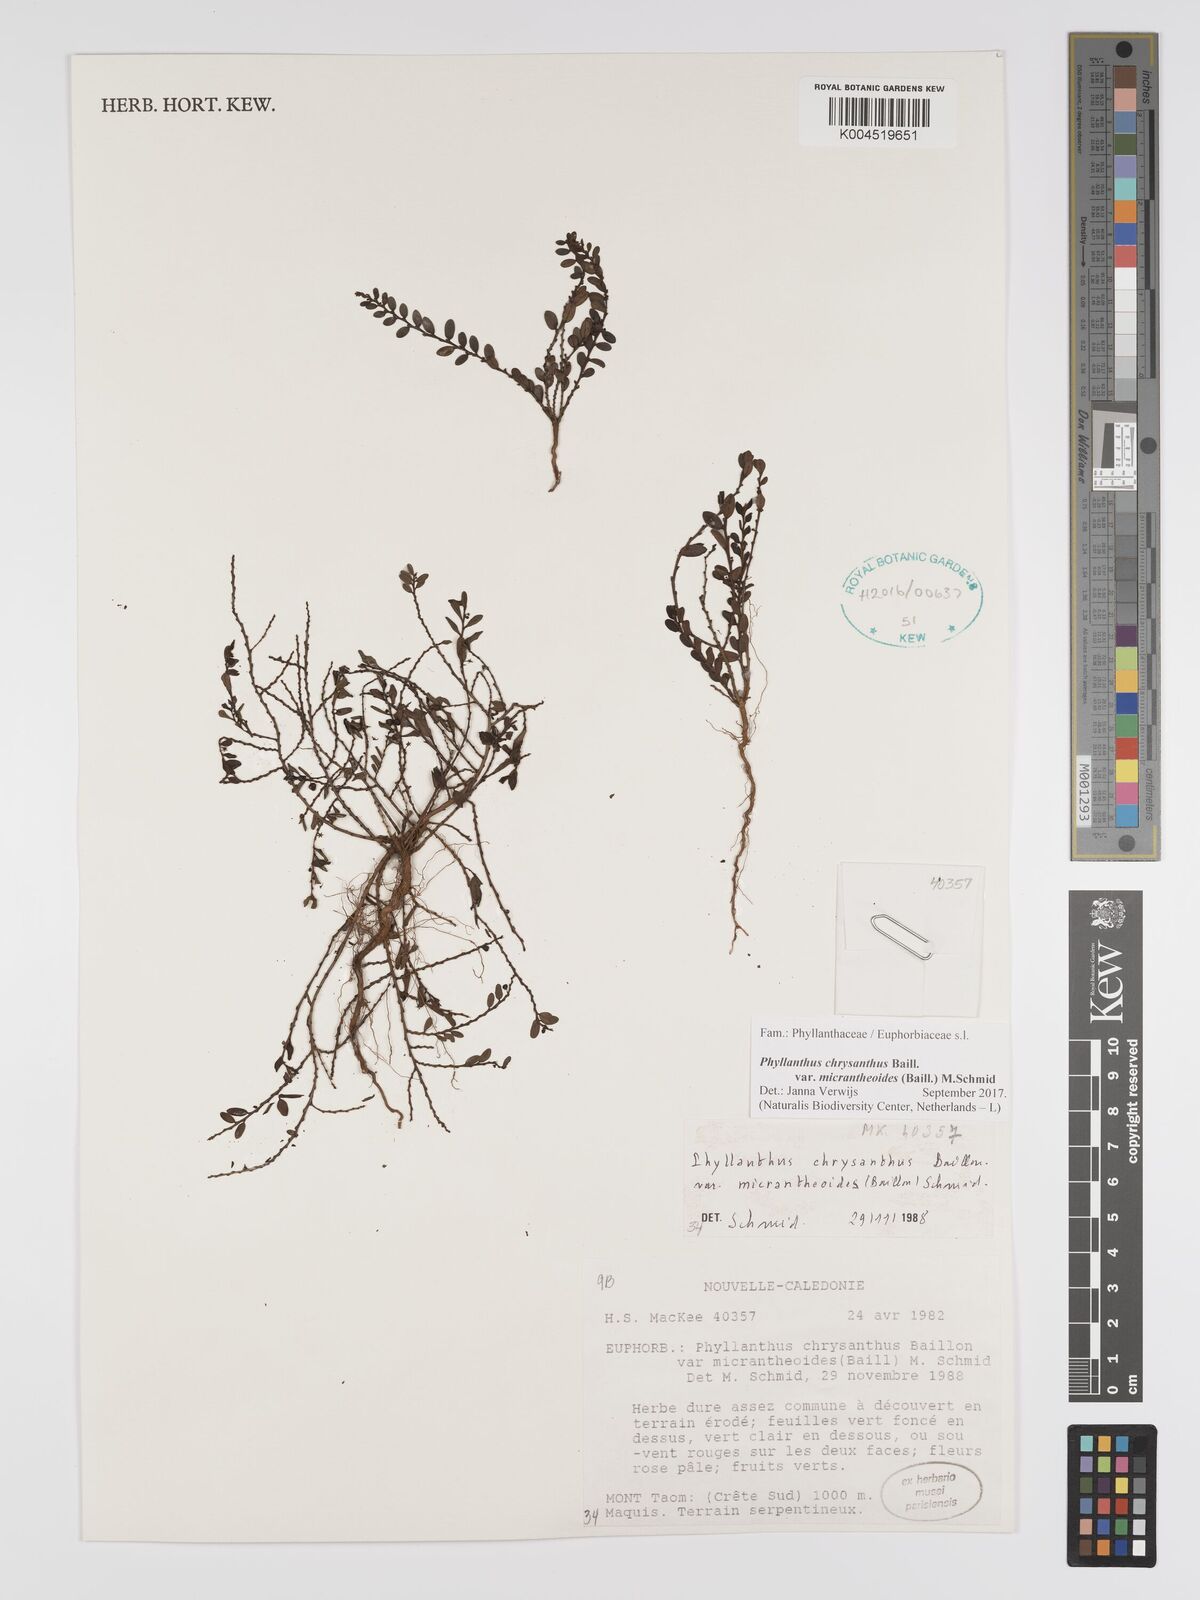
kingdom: Plantae
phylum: Tracheophyta
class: Magnoliopsida
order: Malpighiales
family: Phyllanthaceae
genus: Phyllanthus
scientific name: Phyllanthus chrysanthus
